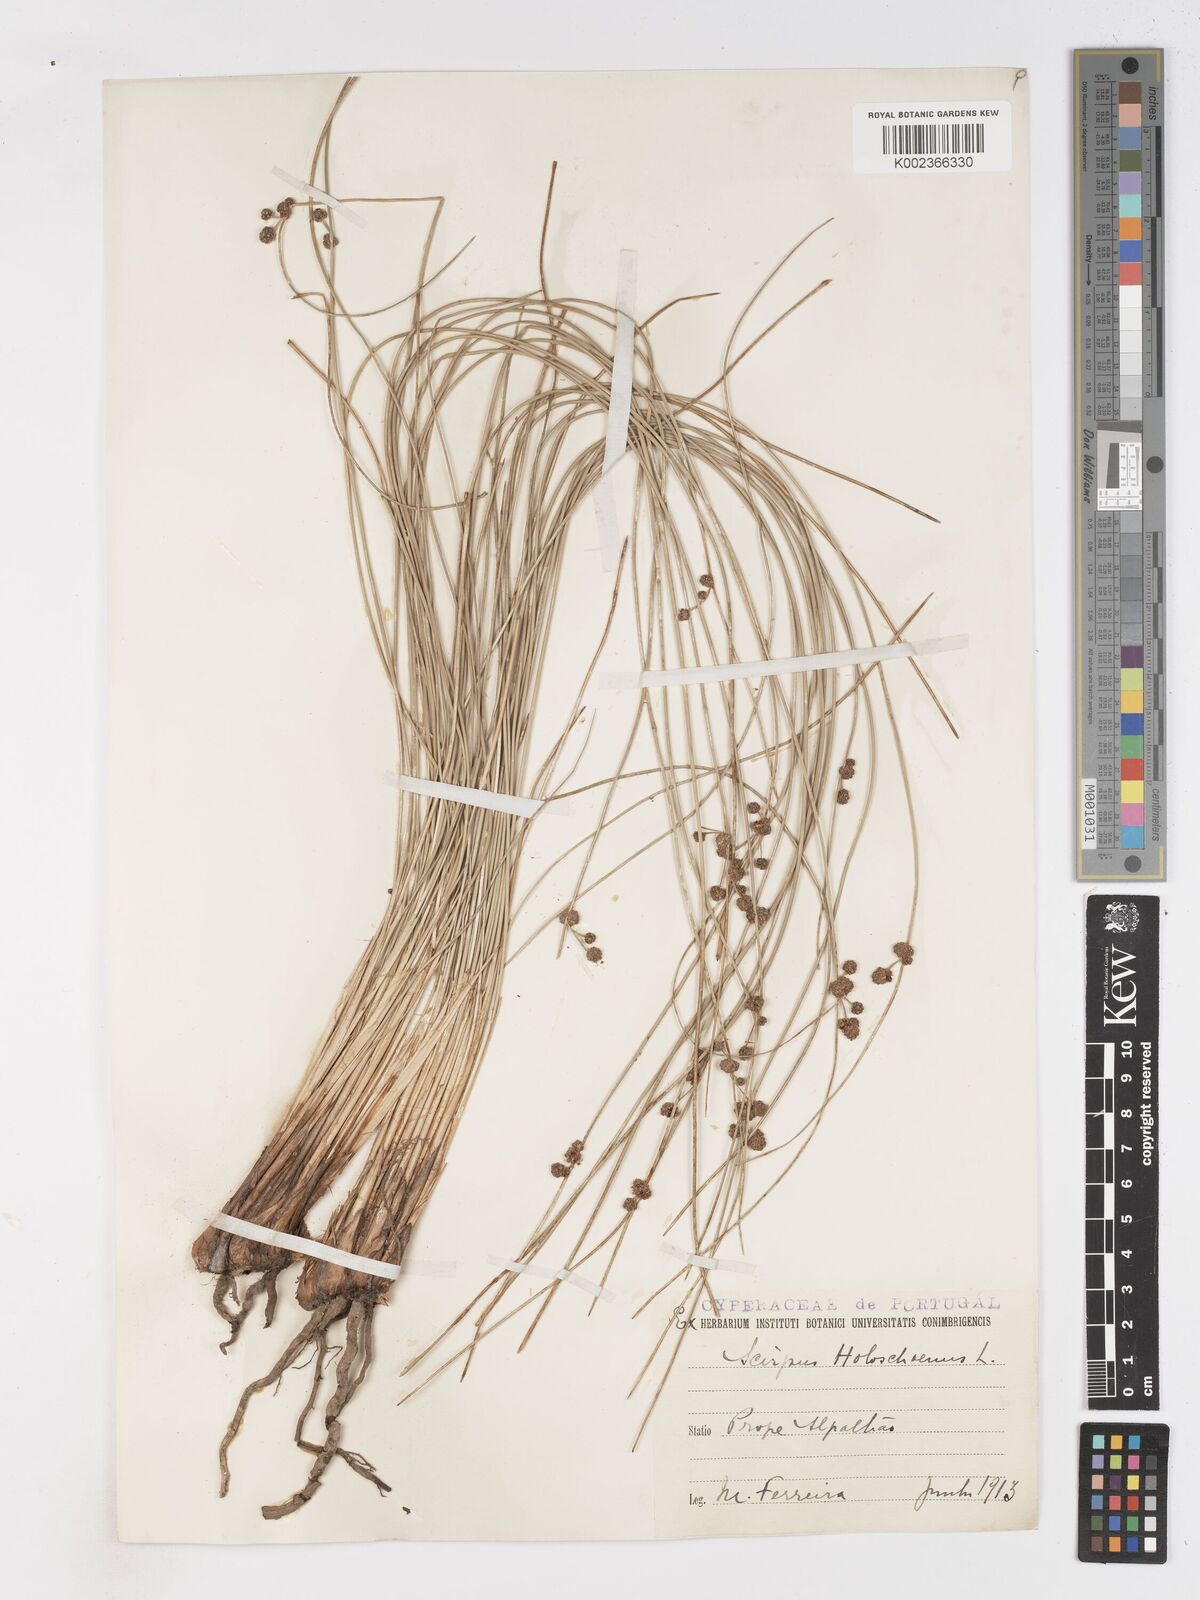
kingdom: Plantae
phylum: Tracheophyta
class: Liliopsida
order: Poales
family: Cyperaceae
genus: Scirpoides
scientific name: Scirpoides holoschoenus
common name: Round-headed club-rush
